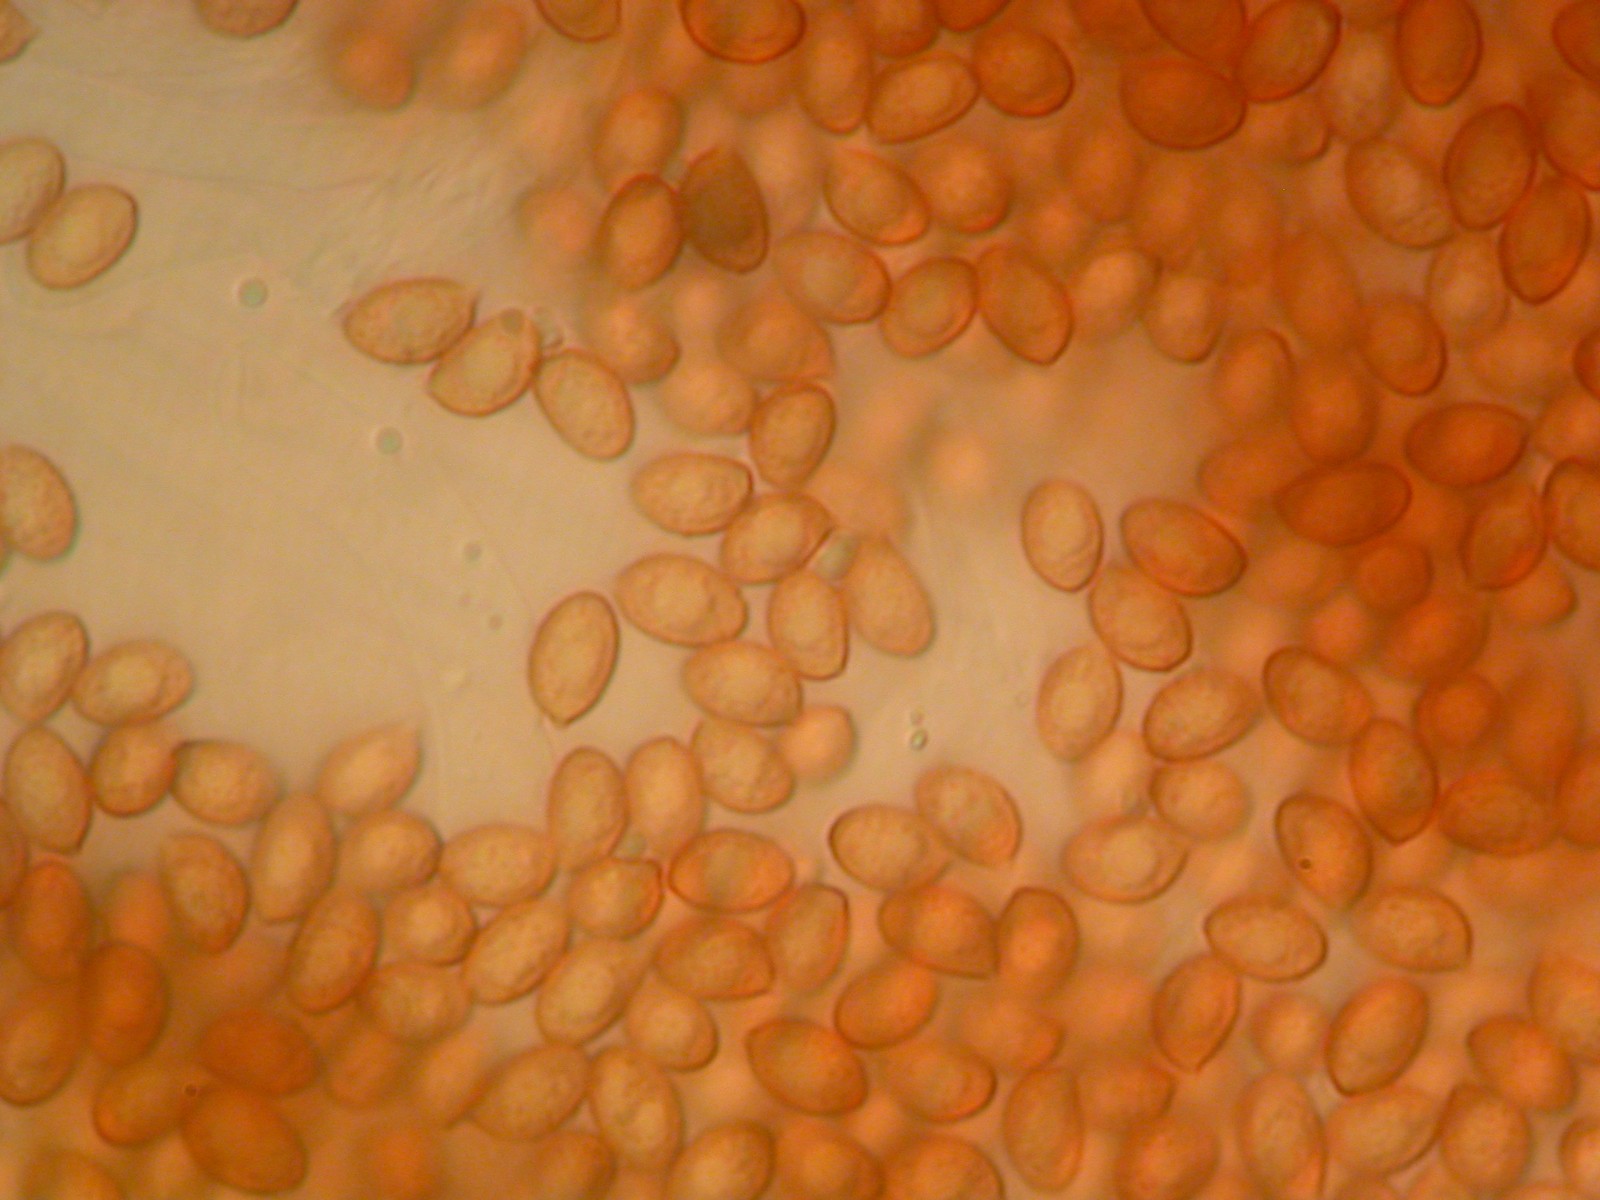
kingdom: Fungi
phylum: Basidiomycota
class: Agaricomycetes
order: Agaricales
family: Cortinariaceae
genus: Thaxterogaster
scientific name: Thaxterogaster leucoluteolus
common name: isabella slørhat
